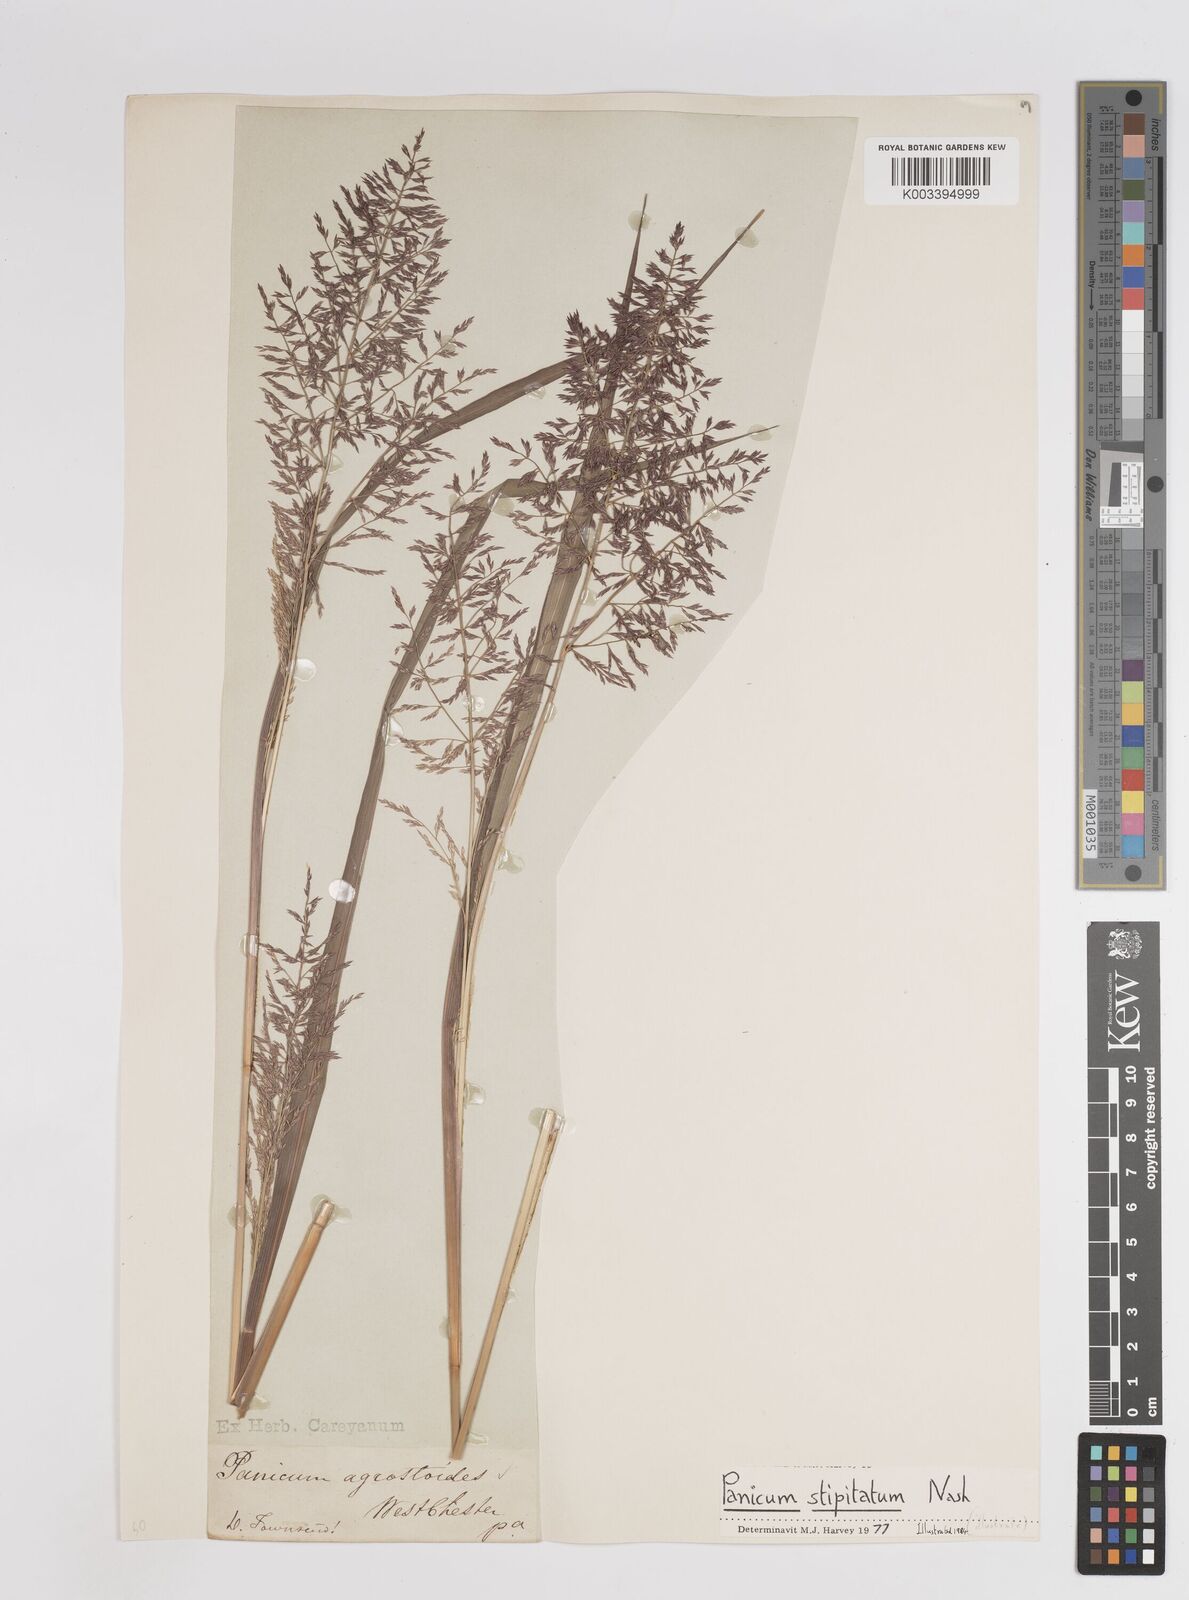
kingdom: Plantae
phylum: Tracheophyta
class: Liliopsida
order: Poales
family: Poaceae
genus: Coleataenia
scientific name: Coleataenia pulchra
